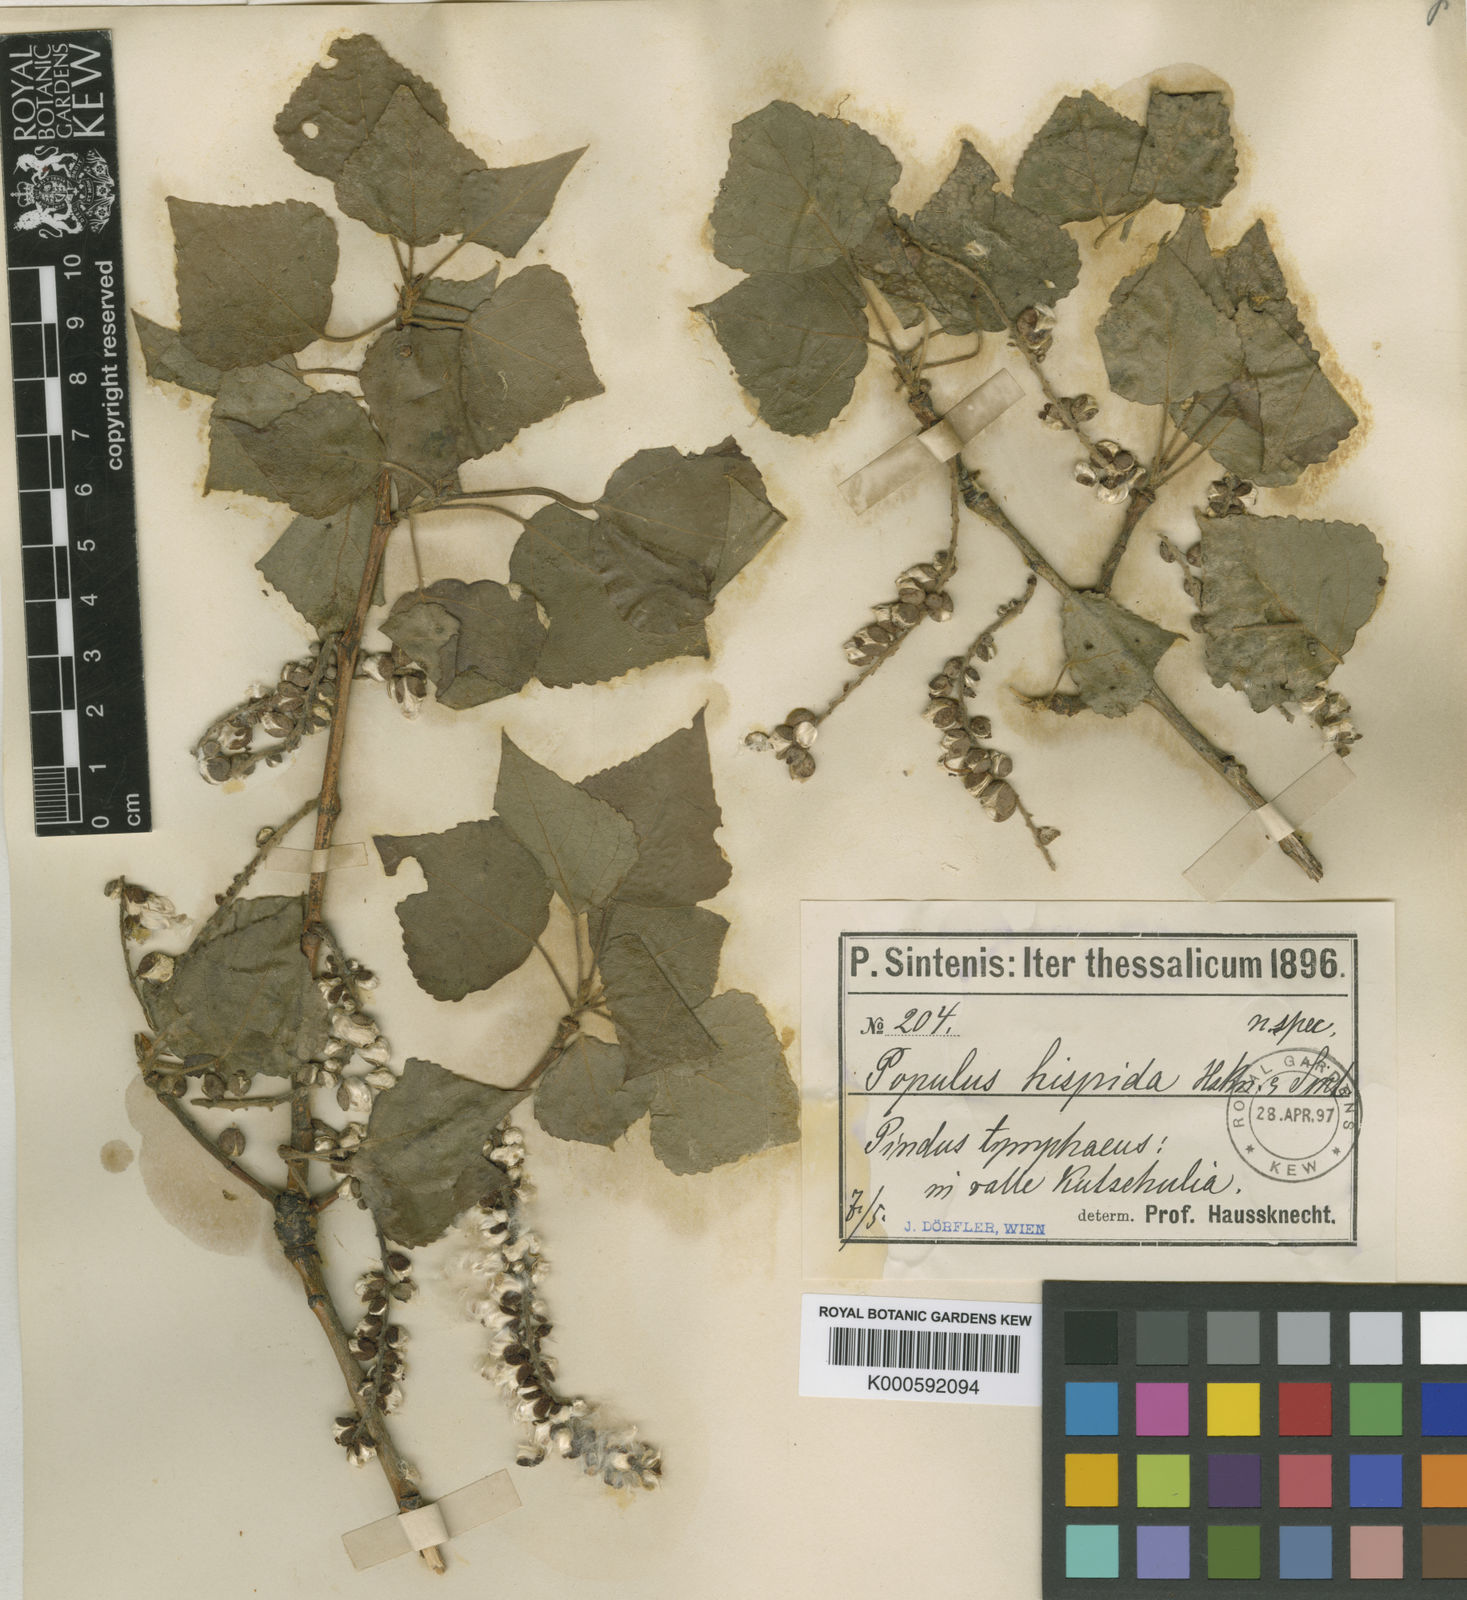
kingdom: Plantae
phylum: Tracheophyta
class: Magnoliopsida
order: Malpighiales
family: Salicaceae
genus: Populus
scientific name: Populus tremuloides
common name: Quaking aspen
